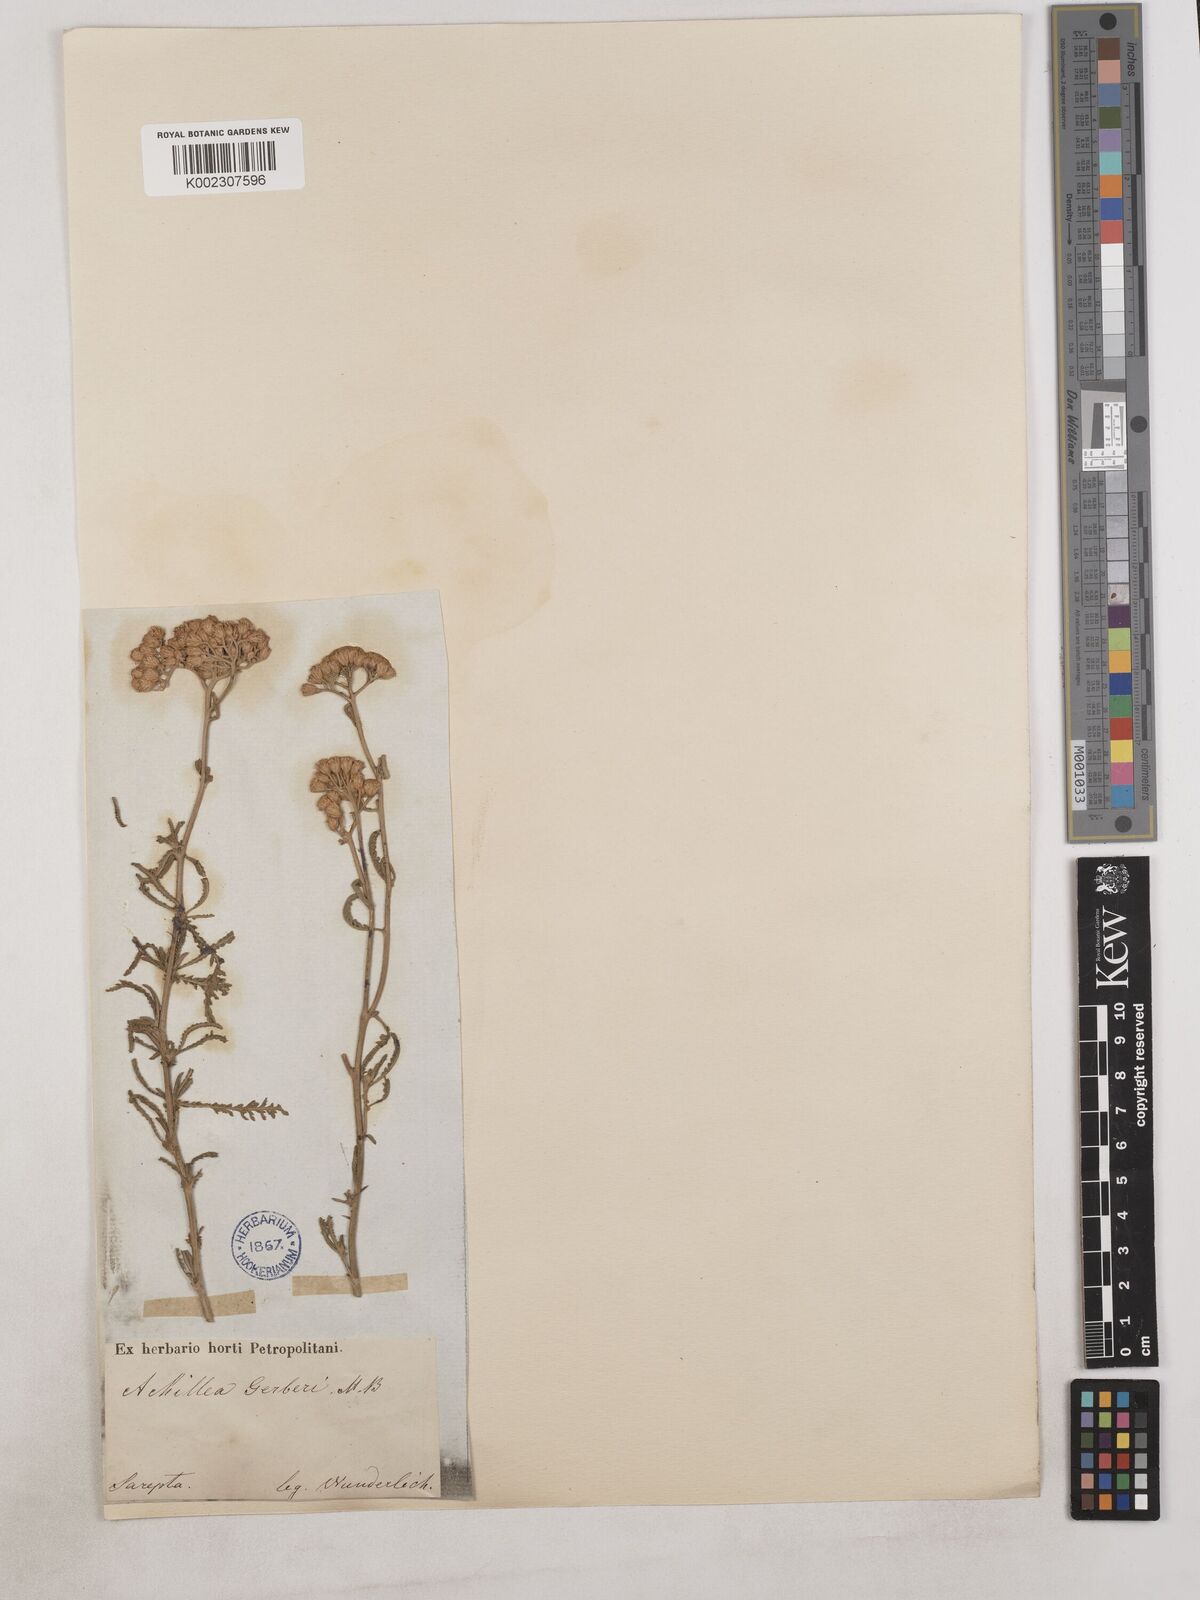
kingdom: Plantae
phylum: Tracheophyta
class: Magnoliopsida
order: Asterales
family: Asteraceae
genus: Achillea
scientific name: Achillea
